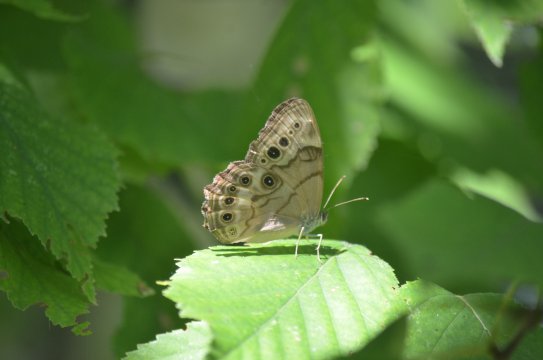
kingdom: Animalia
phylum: Arthropoda
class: Insecta
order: Lepidoptera
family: Nymphalidae
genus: Lethe
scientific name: Lethe anthedon
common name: Northern Pearly-Eye
